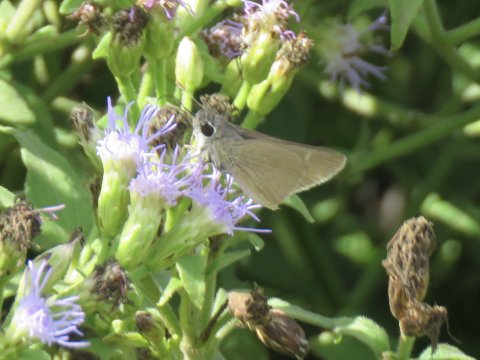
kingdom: Animalia
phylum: Arthropoda
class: Insecta
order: Lepidoptera
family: Hesperiidae
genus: Lerodea
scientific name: Lerodea eufala
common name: Eufala Skipper
